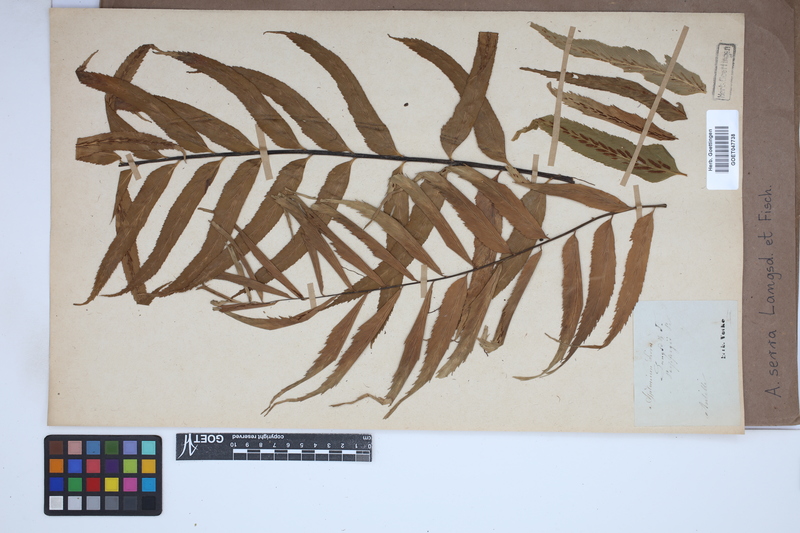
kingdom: Plantae
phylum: Tracheophyta
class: Polypodiopsida
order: Polypodiales
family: Aspleniaceae
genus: Asplenium
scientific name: Asplenium serra
